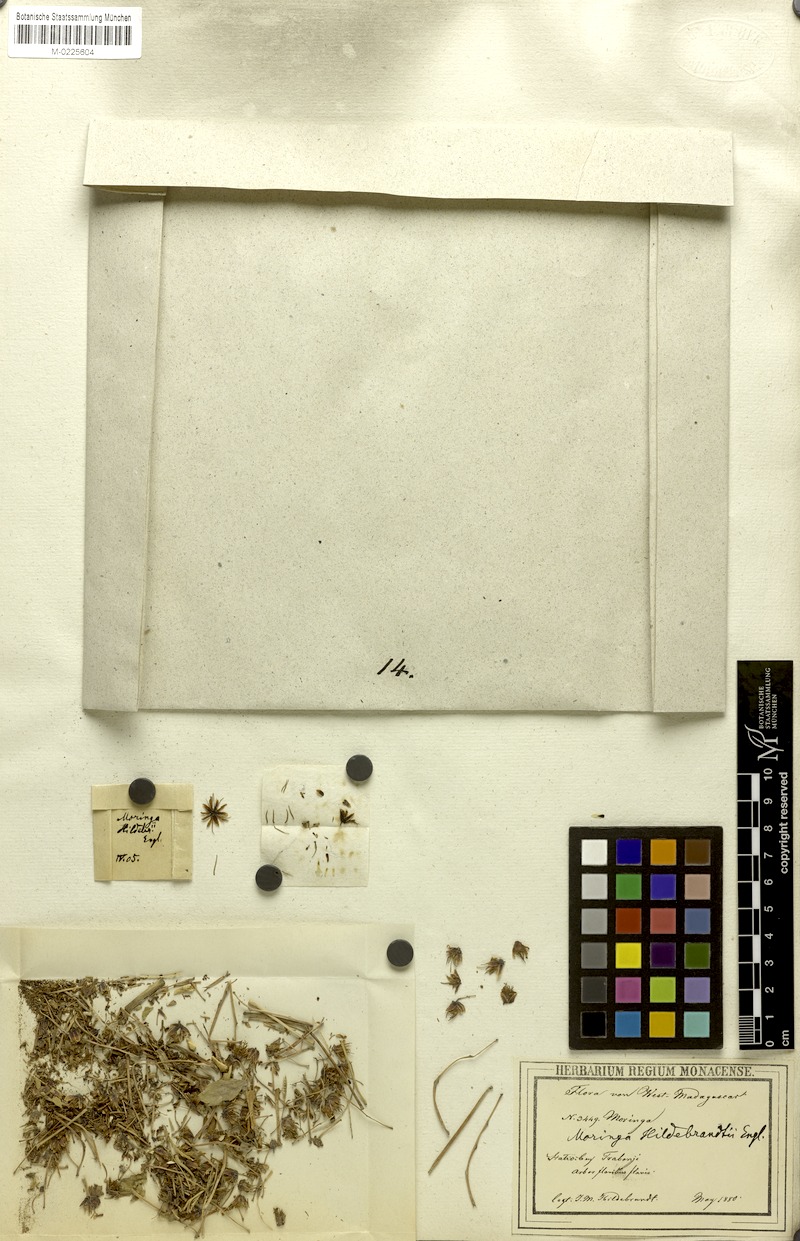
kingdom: Plantae
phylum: Tracheophyta
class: Magnoliopsida
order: Brassicales
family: Moringaceae
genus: Moringa
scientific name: Moringa hildebrandtii
